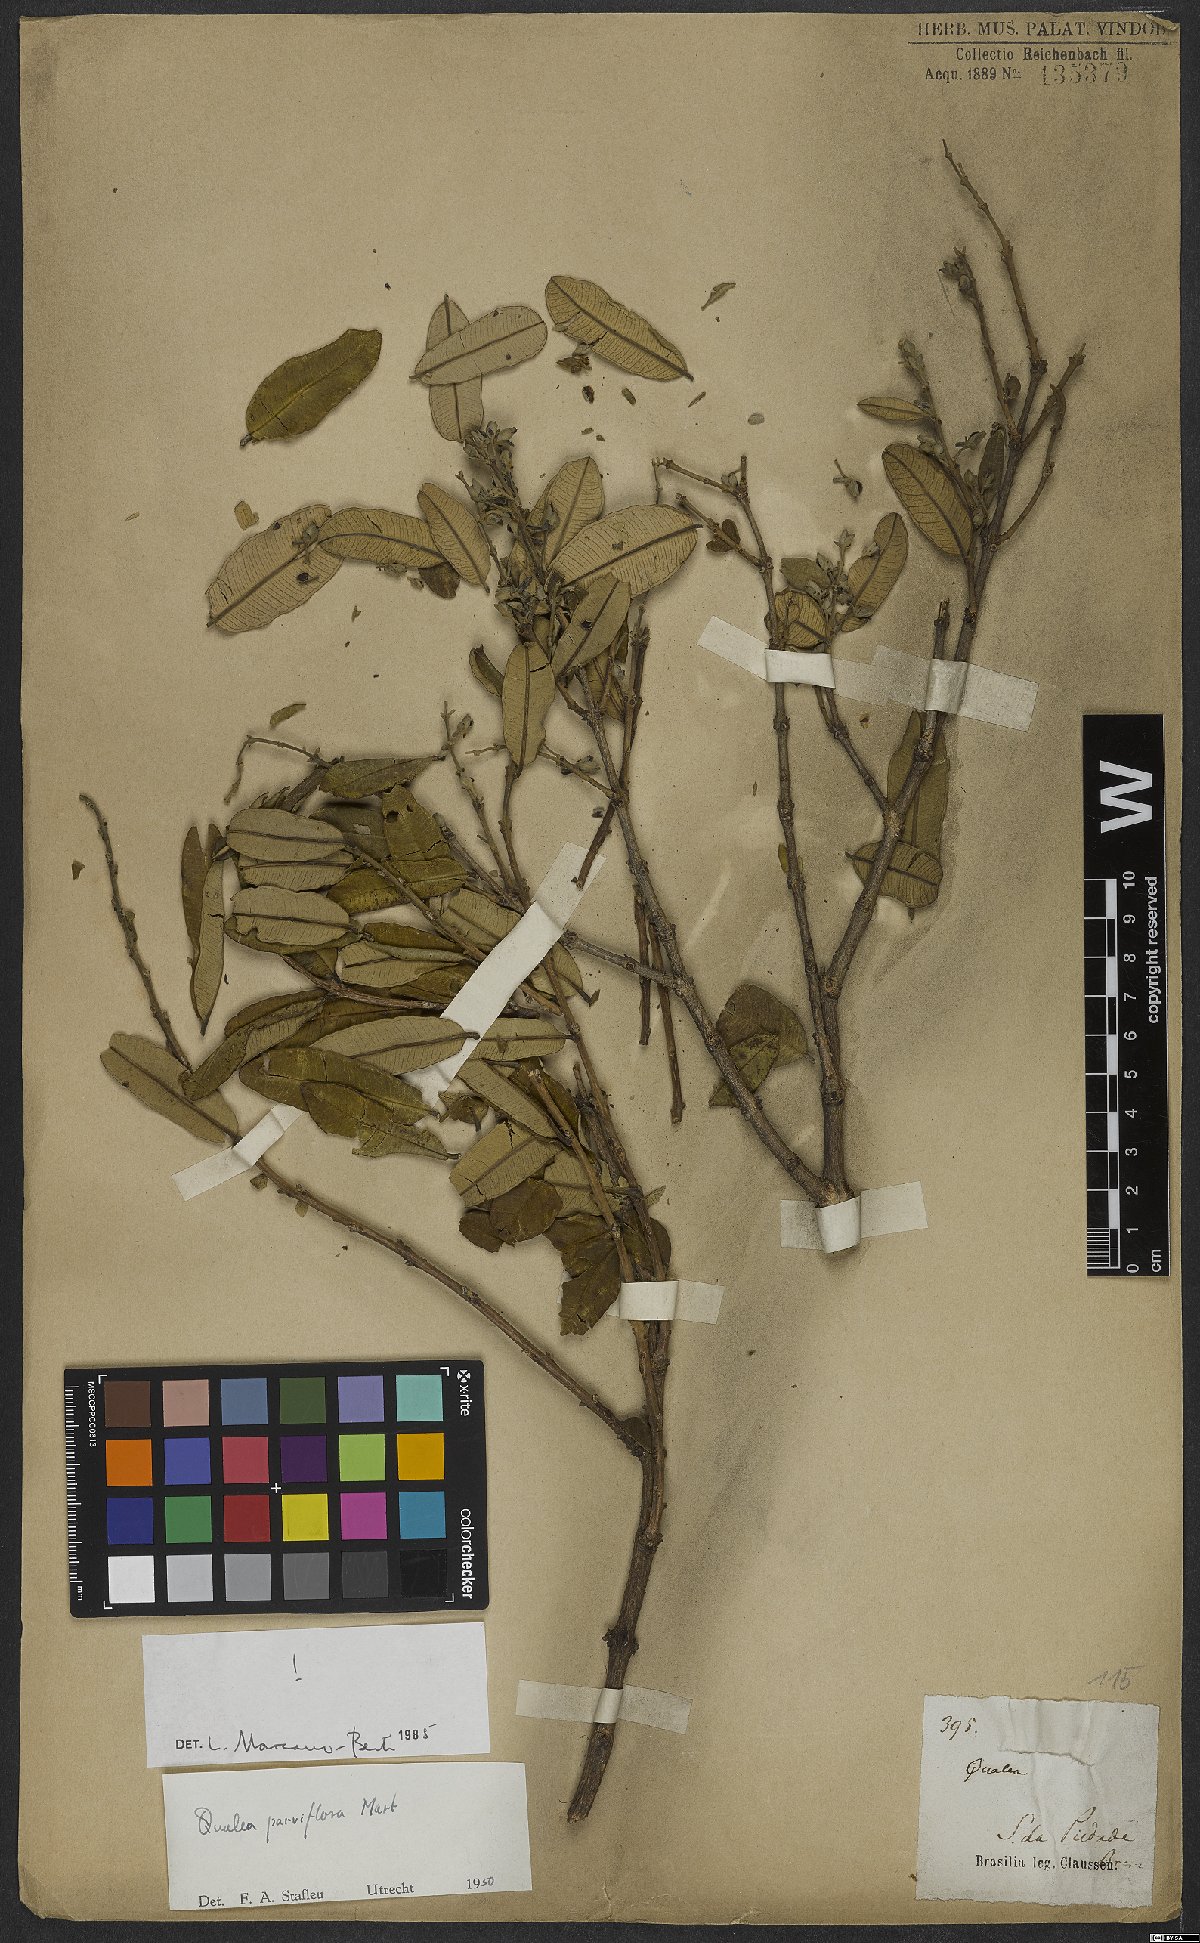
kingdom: Plantae
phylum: Tracheophyta
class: Magnoliopsida
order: Myrtales
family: Vochysiaceae
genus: Qualea
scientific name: Qualea parviflora
